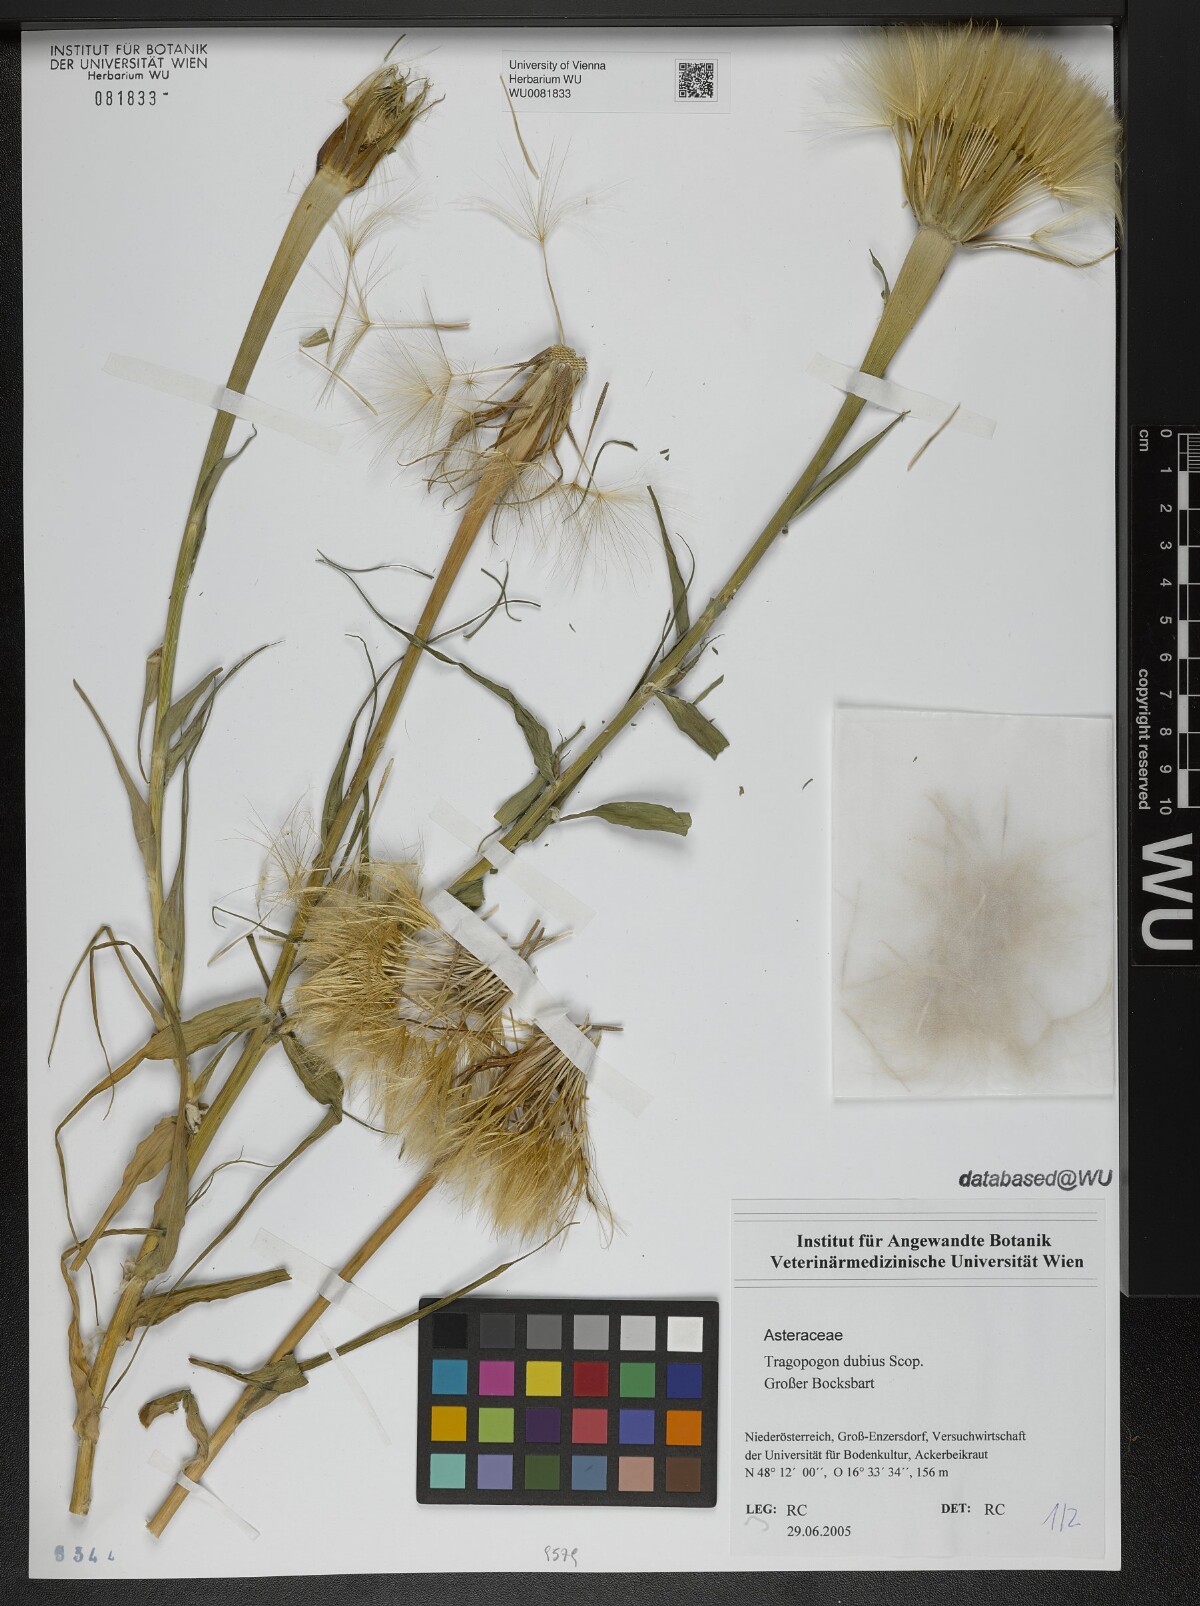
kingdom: Plantae
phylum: Tracheophyta
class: Magnoliopsida
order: Asterales
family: Asteraceae
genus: Tragopogon
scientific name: Tragopogon dubius
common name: Yellow salsify
